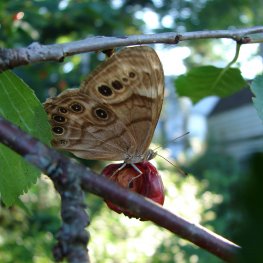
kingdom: Animalia
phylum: Arthropoda
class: Insecta
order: Lepidoptera
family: Nymphalidae
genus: Lethe
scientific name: Lethe anthedon
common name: Northern Pearly-Eye
